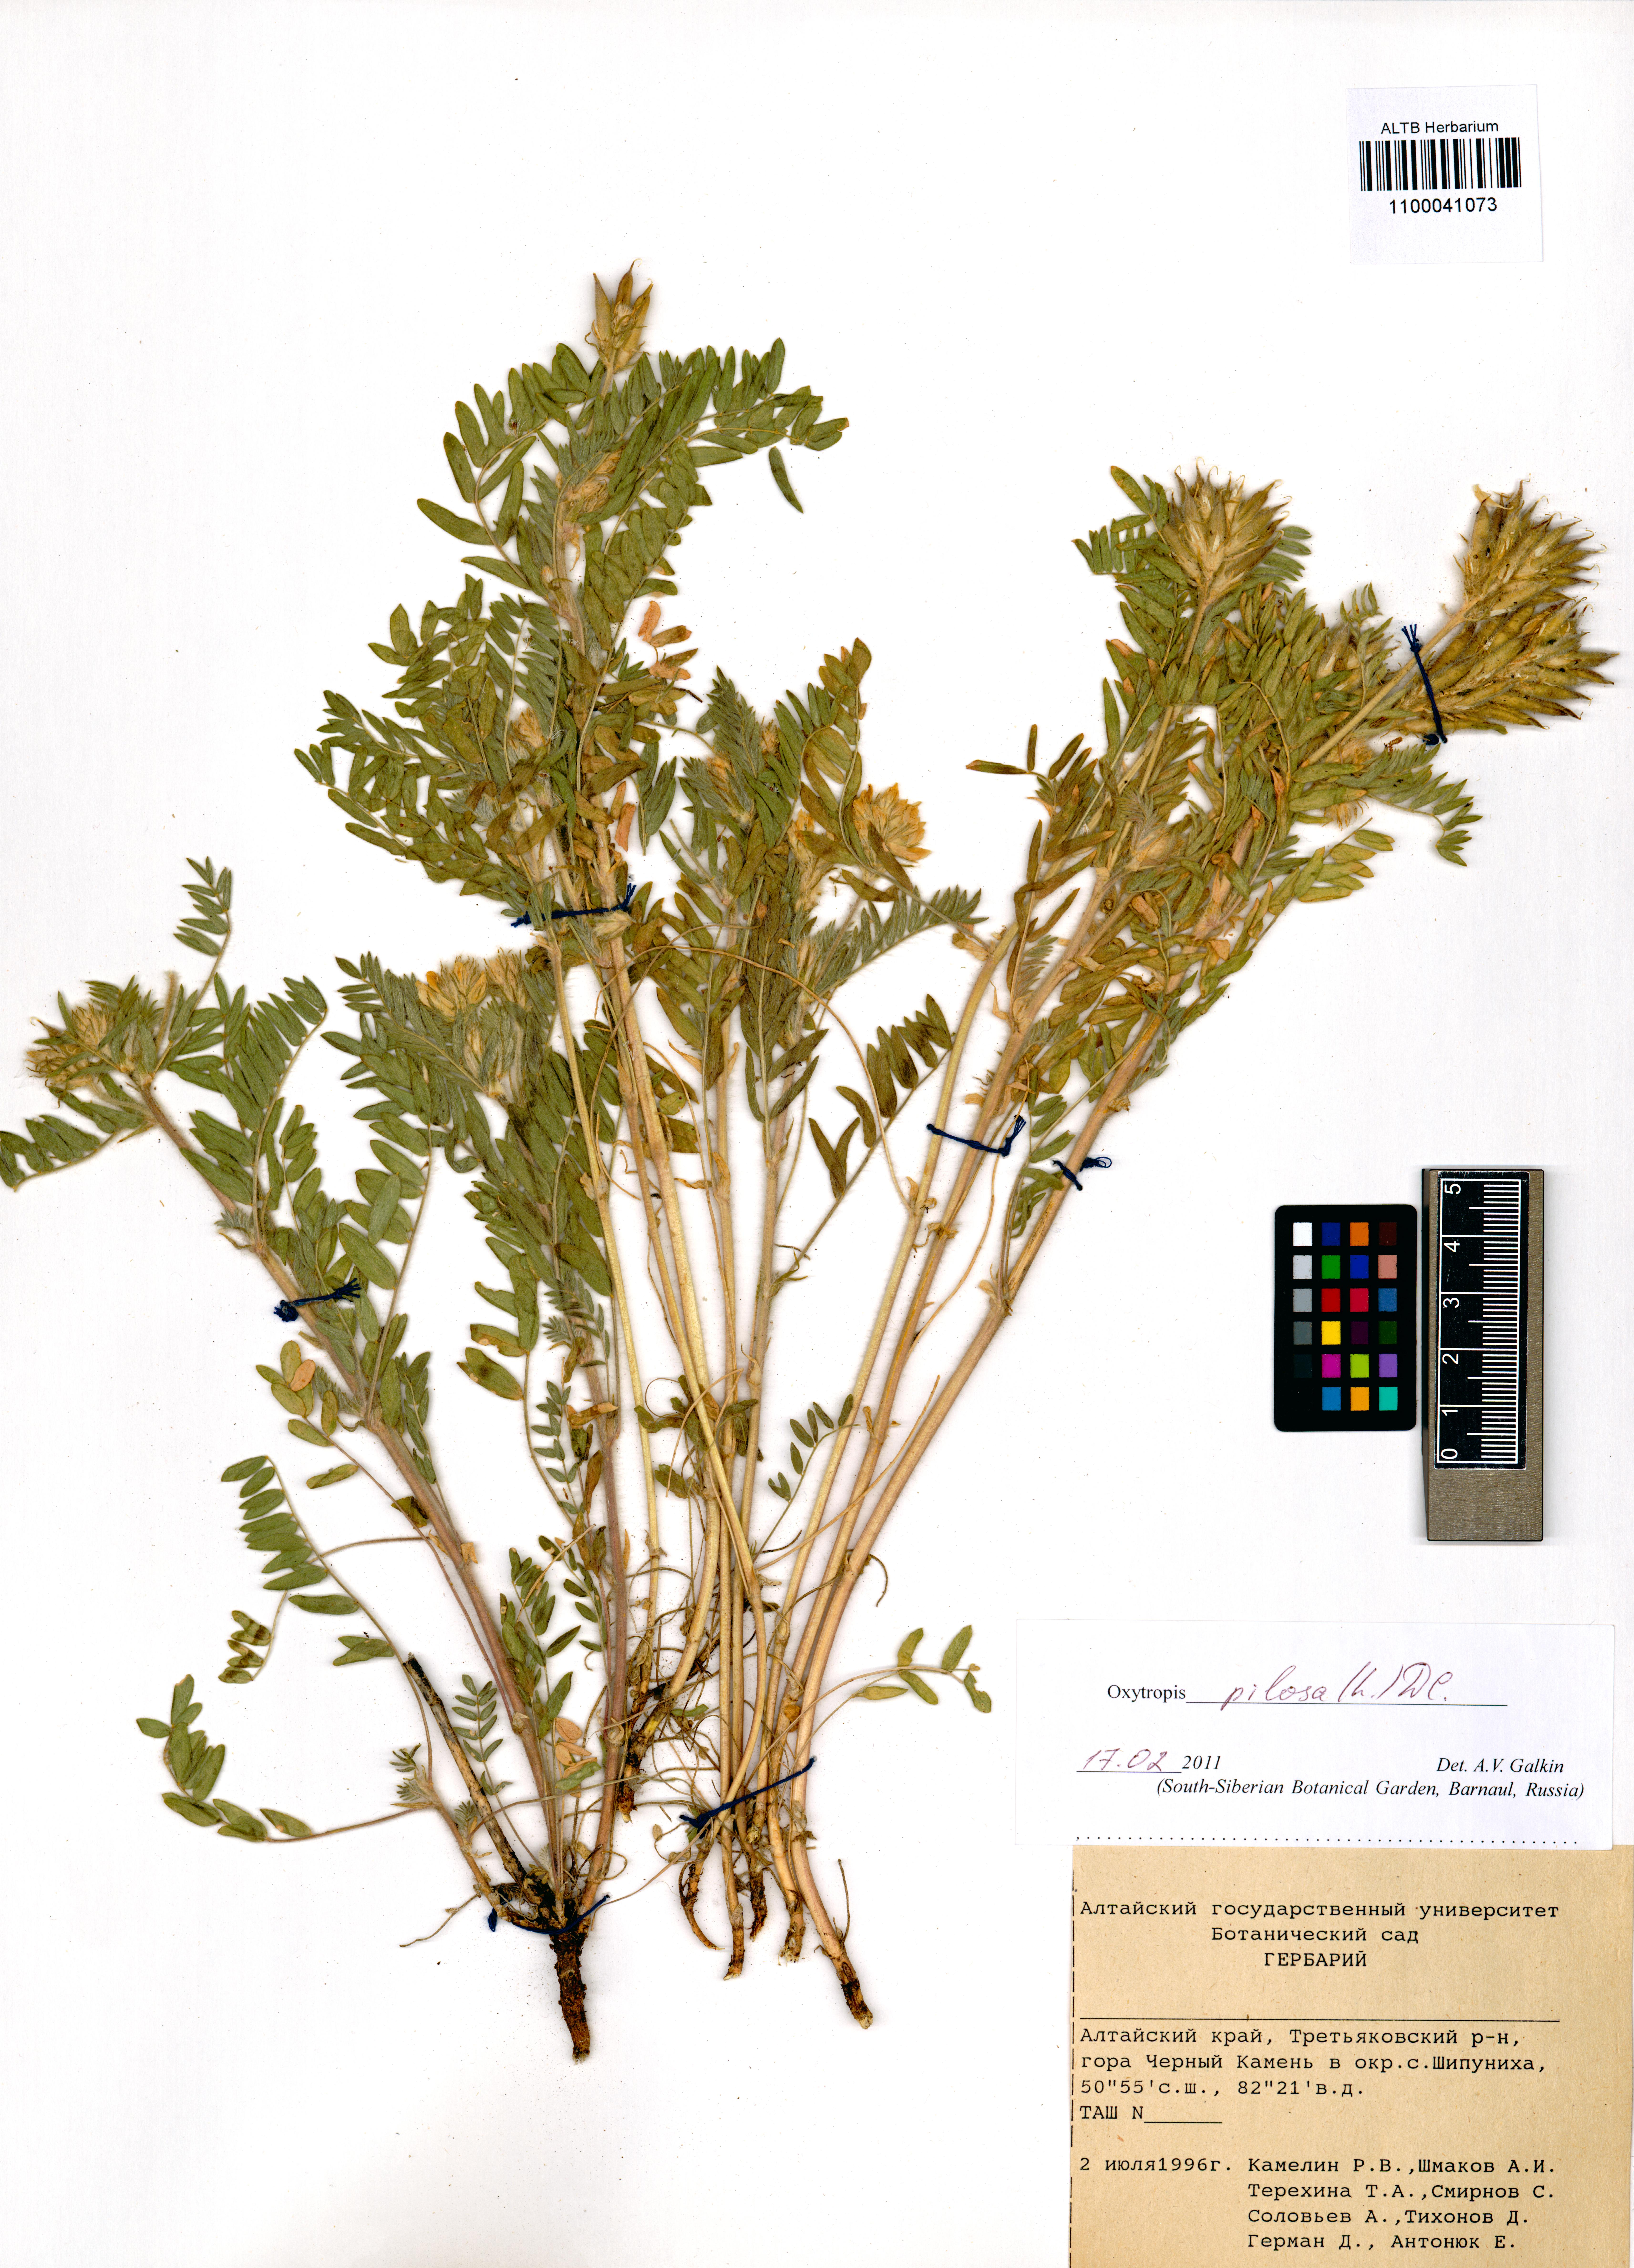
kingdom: Plantae
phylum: Tracheophyta
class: Magnoliopsida
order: Fabales
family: Fabaceae
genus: Oxytropis
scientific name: Oxytropis pilosa
